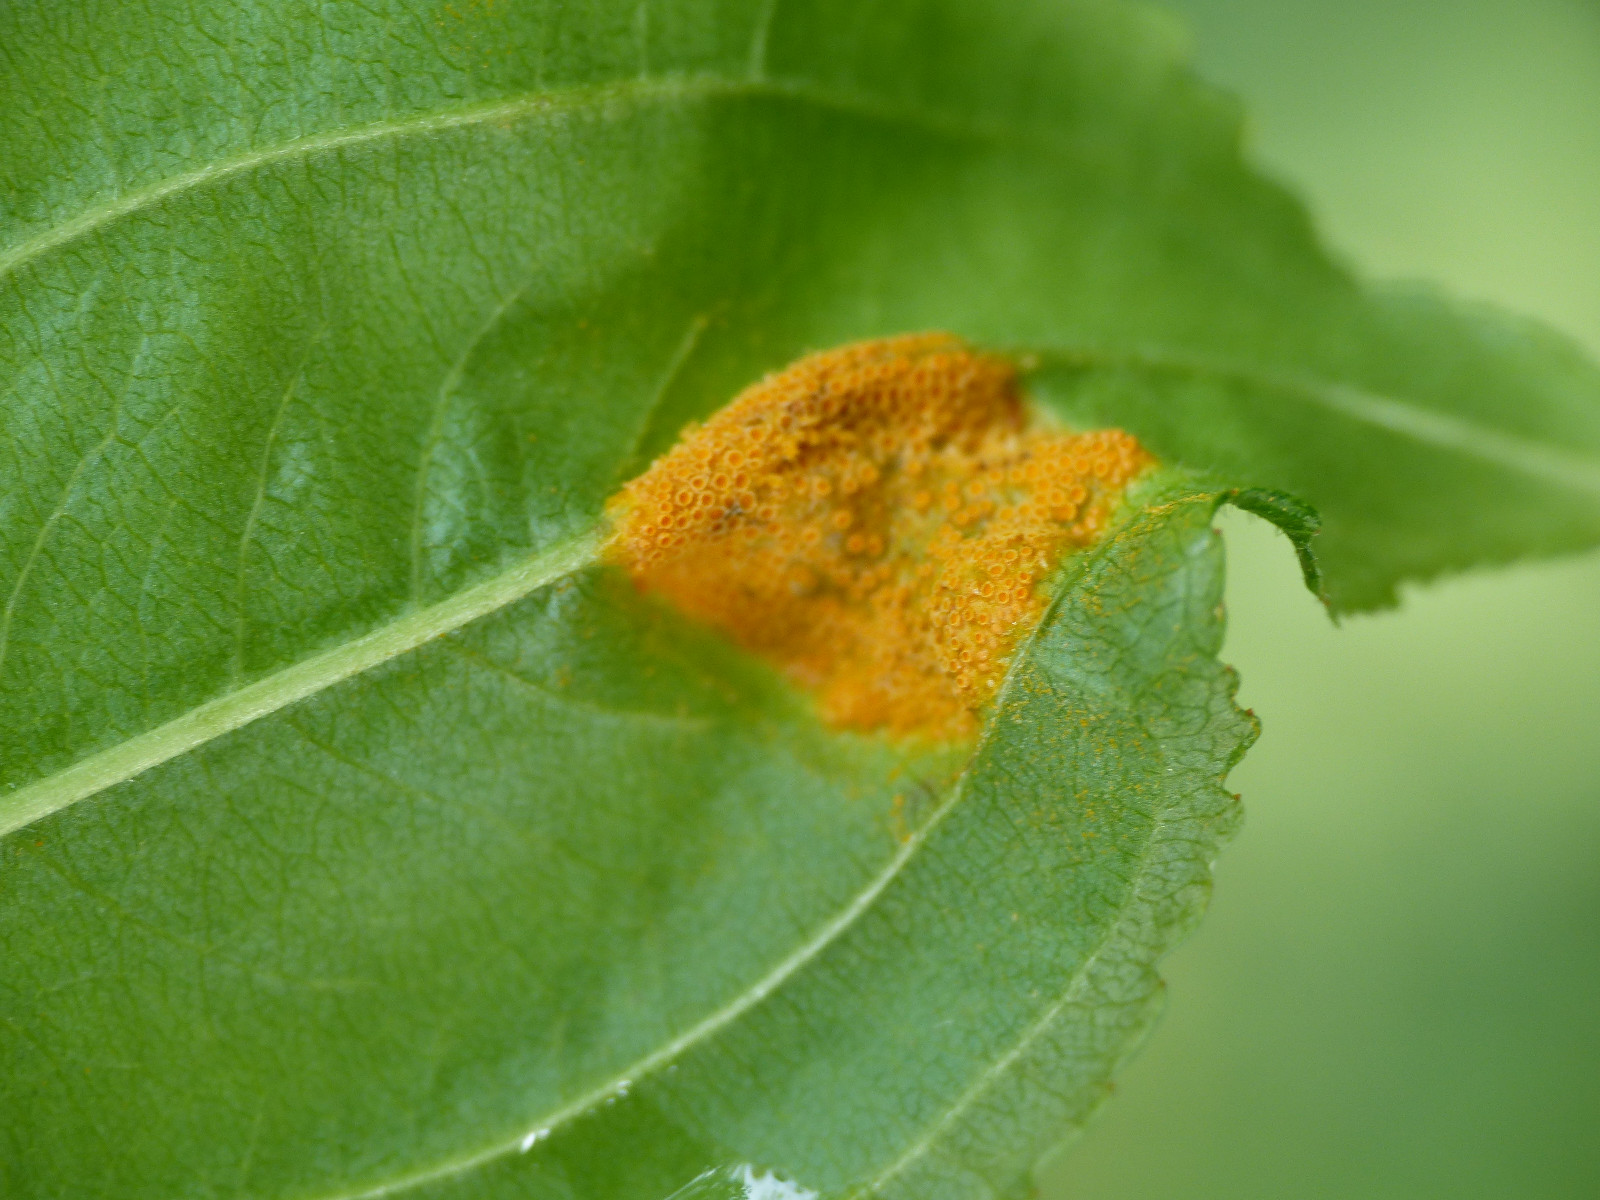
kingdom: Fungi
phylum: Basidiomycota
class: Pucciniomycetes
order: Pucciniales
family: Pucciniaceae
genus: Puccinia
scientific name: Puccinia coronata
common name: Crown rust
